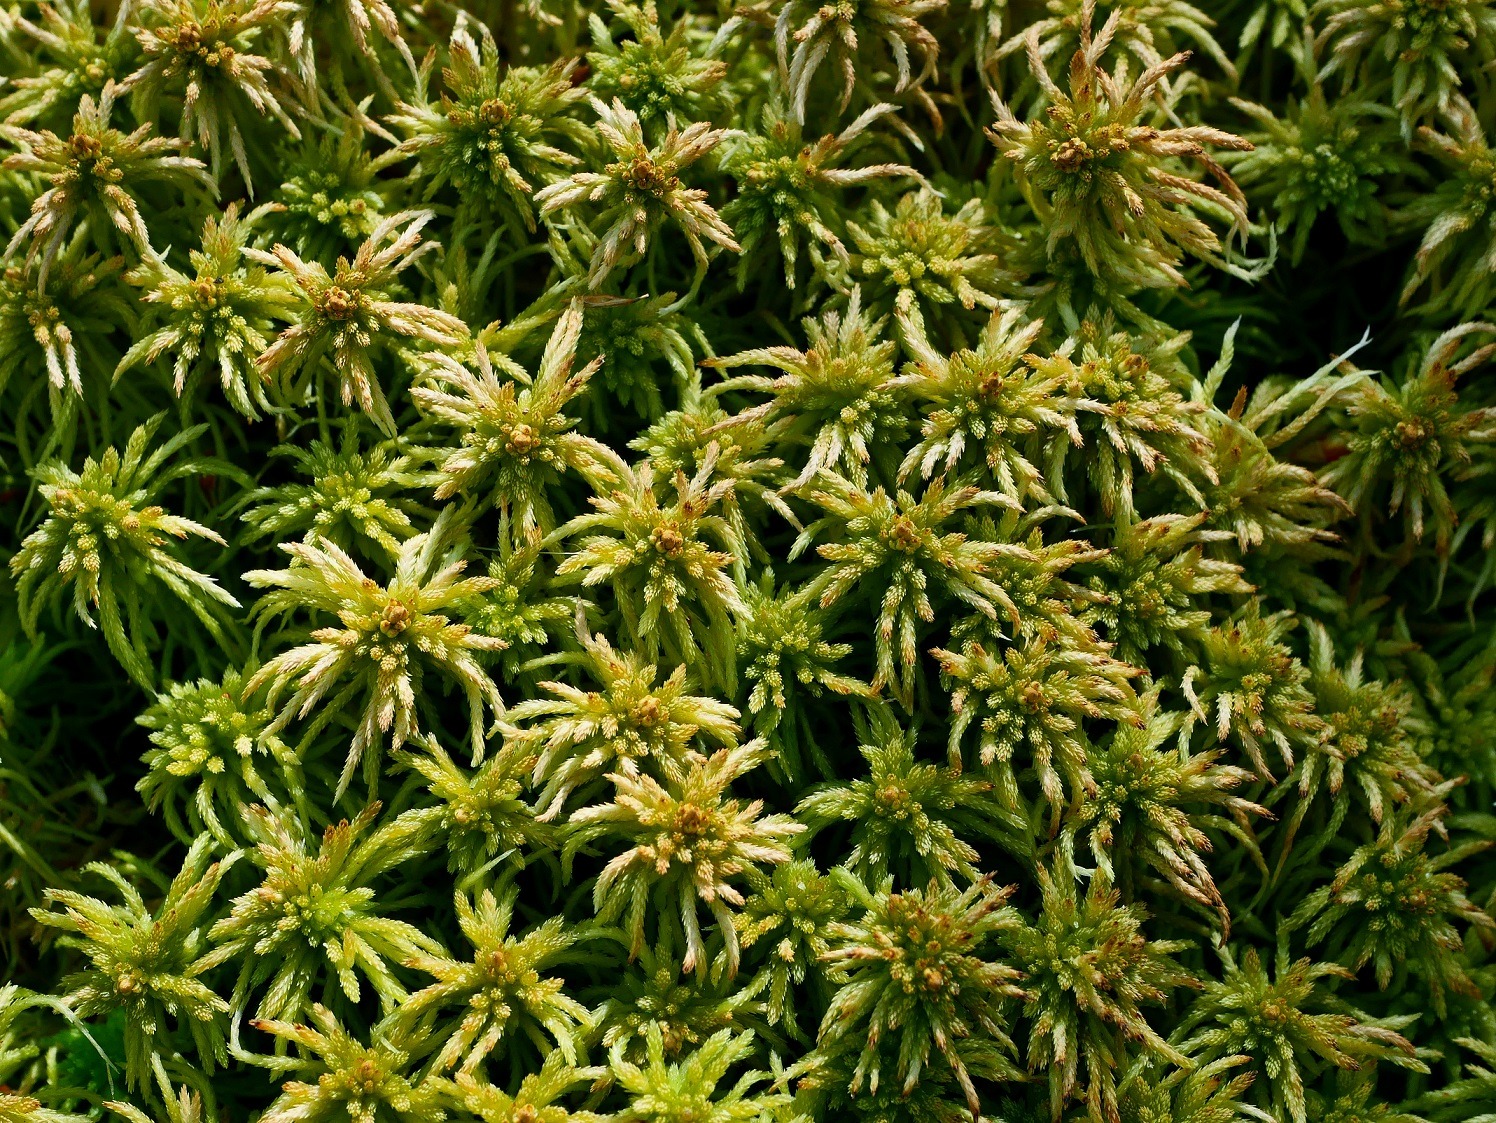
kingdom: Plantae
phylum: Bryophyta
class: Sphagnopsida
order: Sphagnales
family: Sphagnaceae
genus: Sphagnum
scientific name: Sphagnum girgensohnii
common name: Stiv tørvemos
